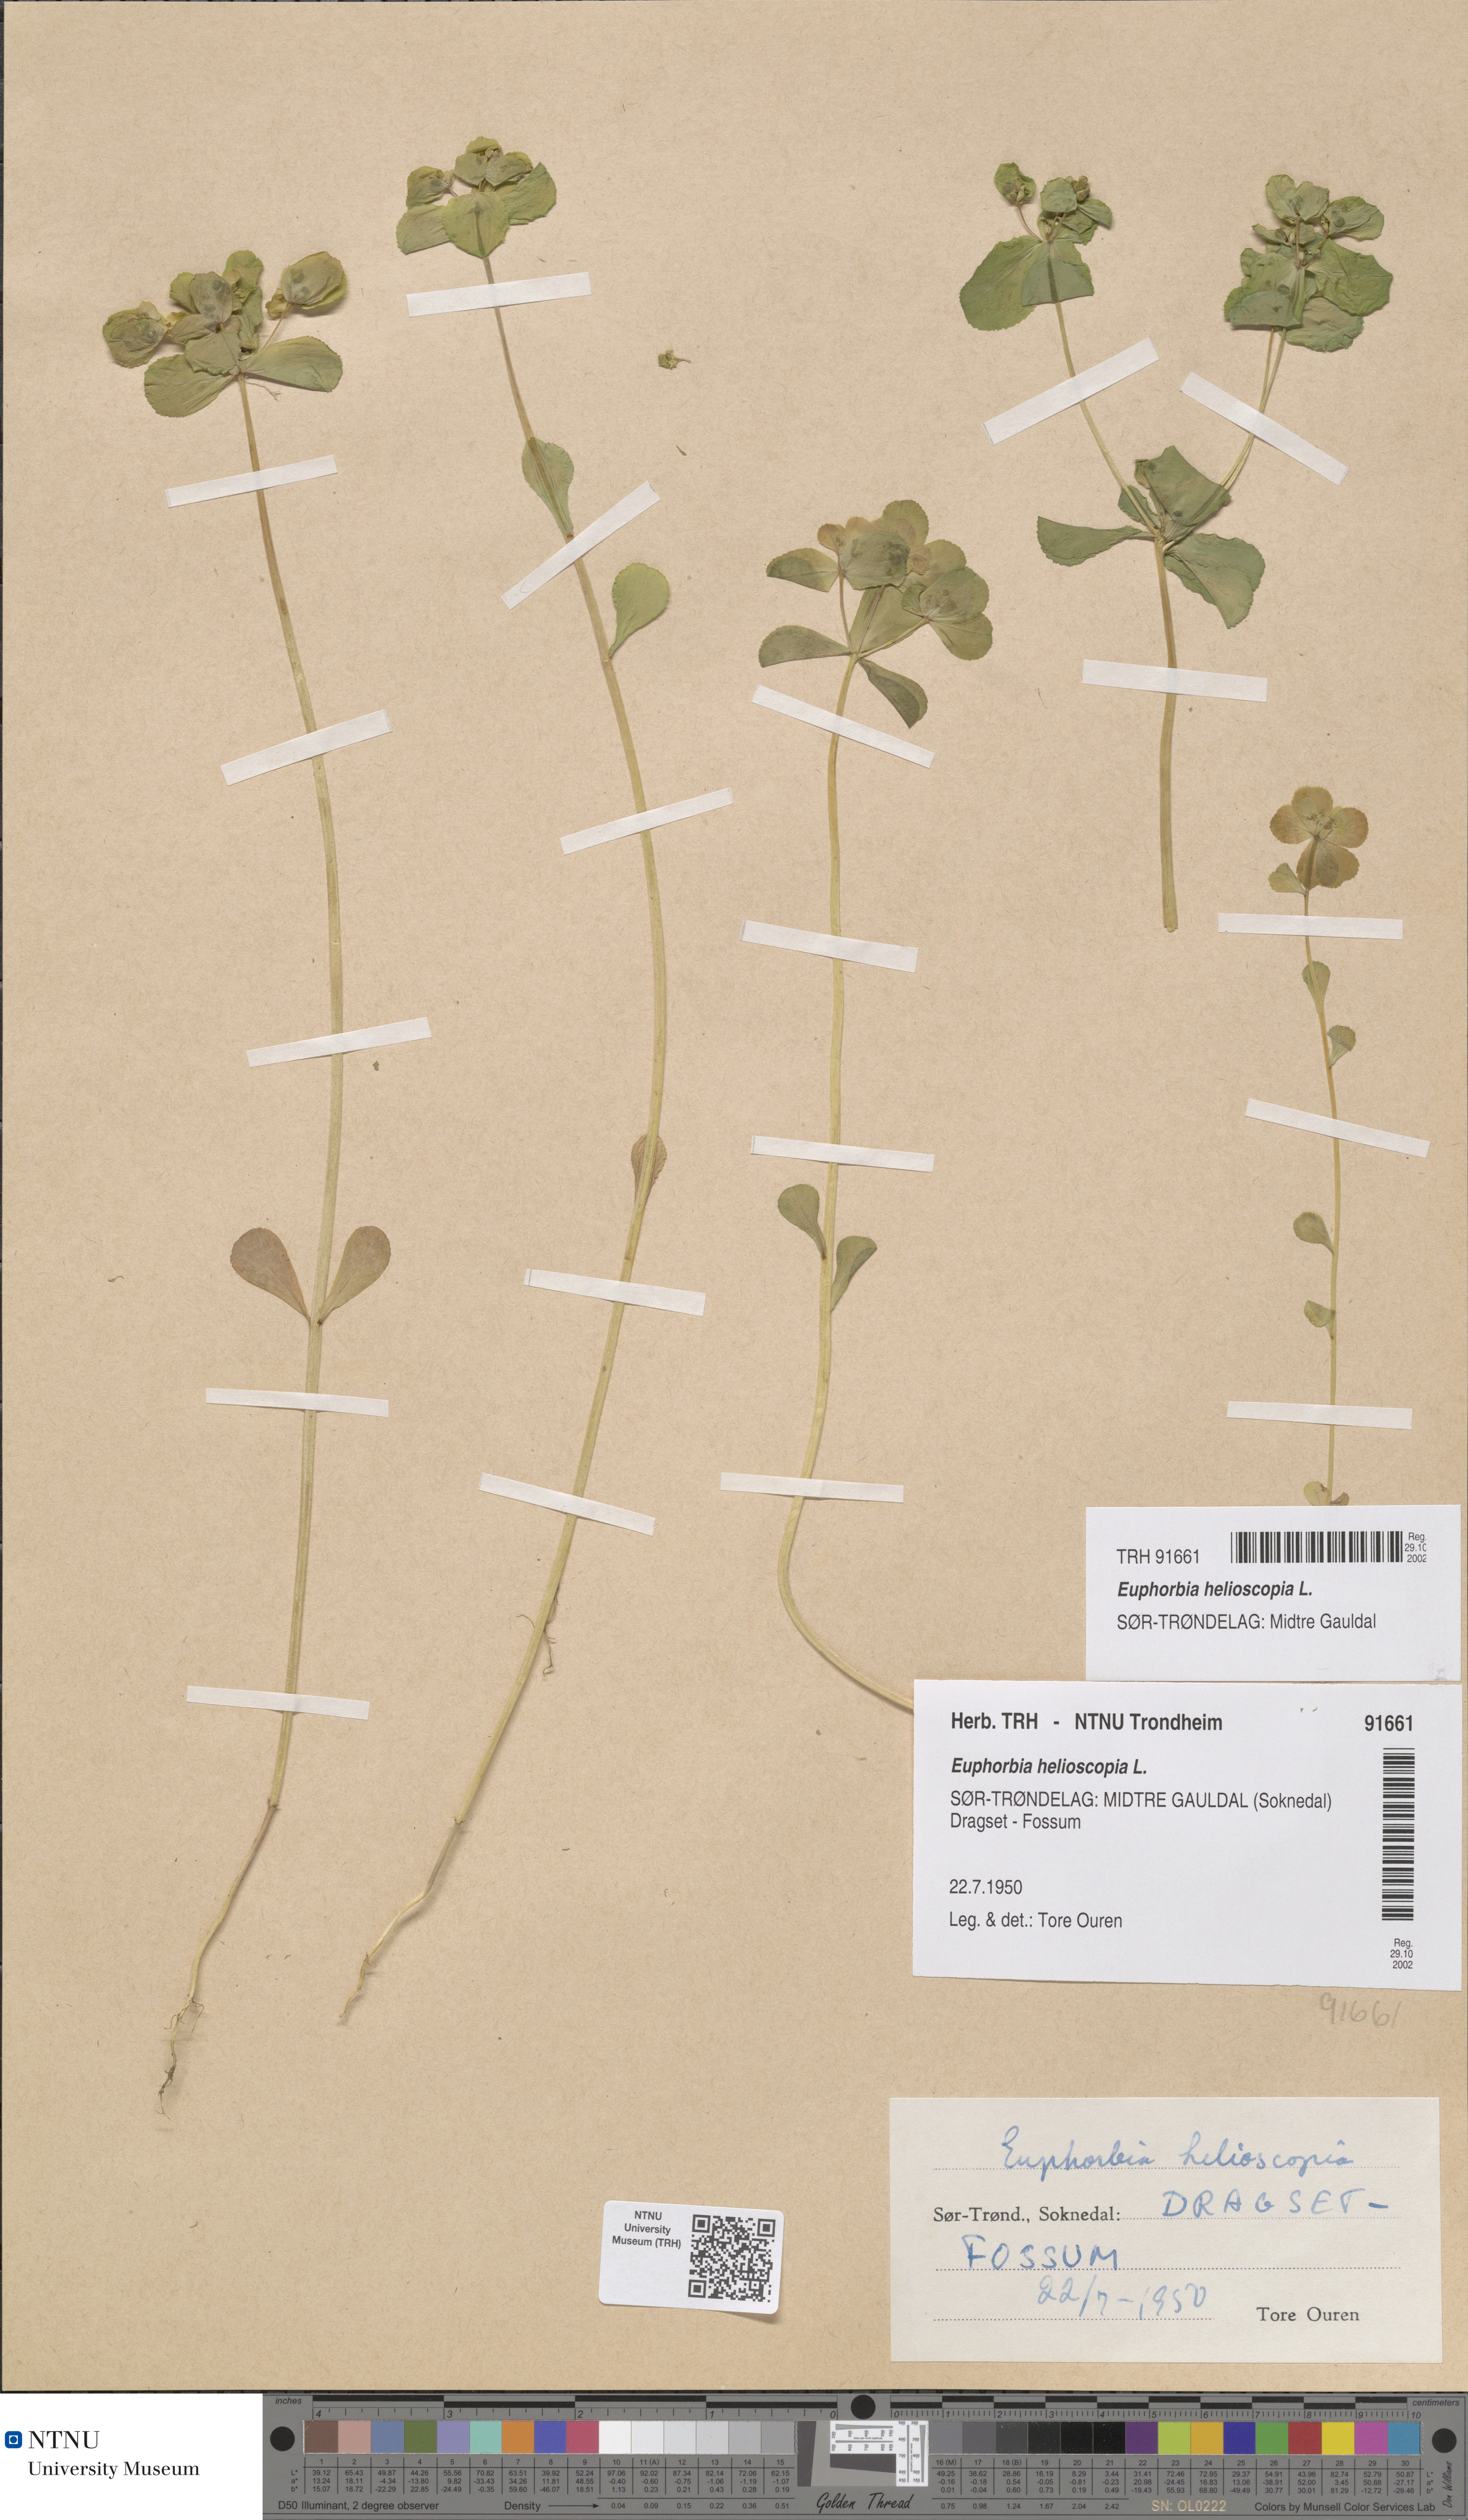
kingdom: Plantae
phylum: Tracheophyta
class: Magnoliopsida
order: Malpighiales
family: Euphorbiaceae
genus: Euphorbia
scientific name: Euphorbia helioscopia
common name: Sun spurge
